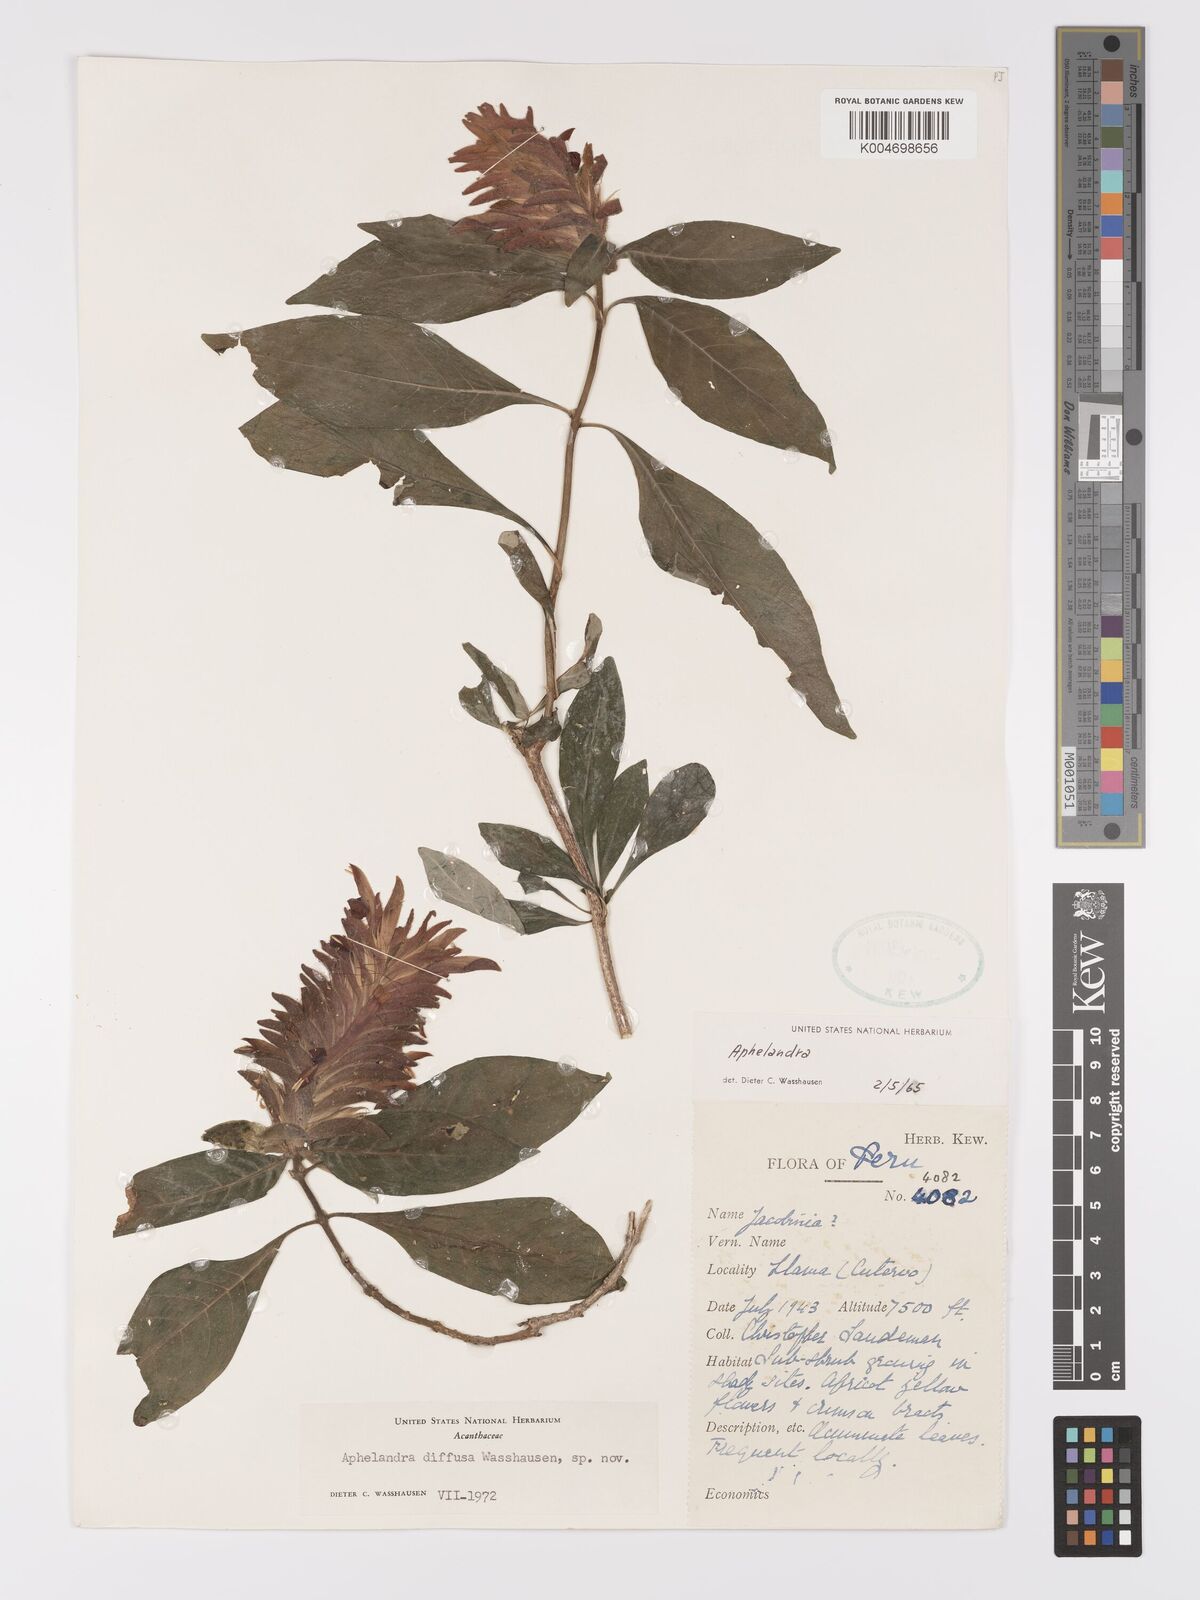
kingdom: Plantae
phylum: Tracheophyta
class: Magnoliopsida
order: Lamiales
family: Acanthaceae
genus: Aphelandra
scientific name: Aphelandra diffusa
